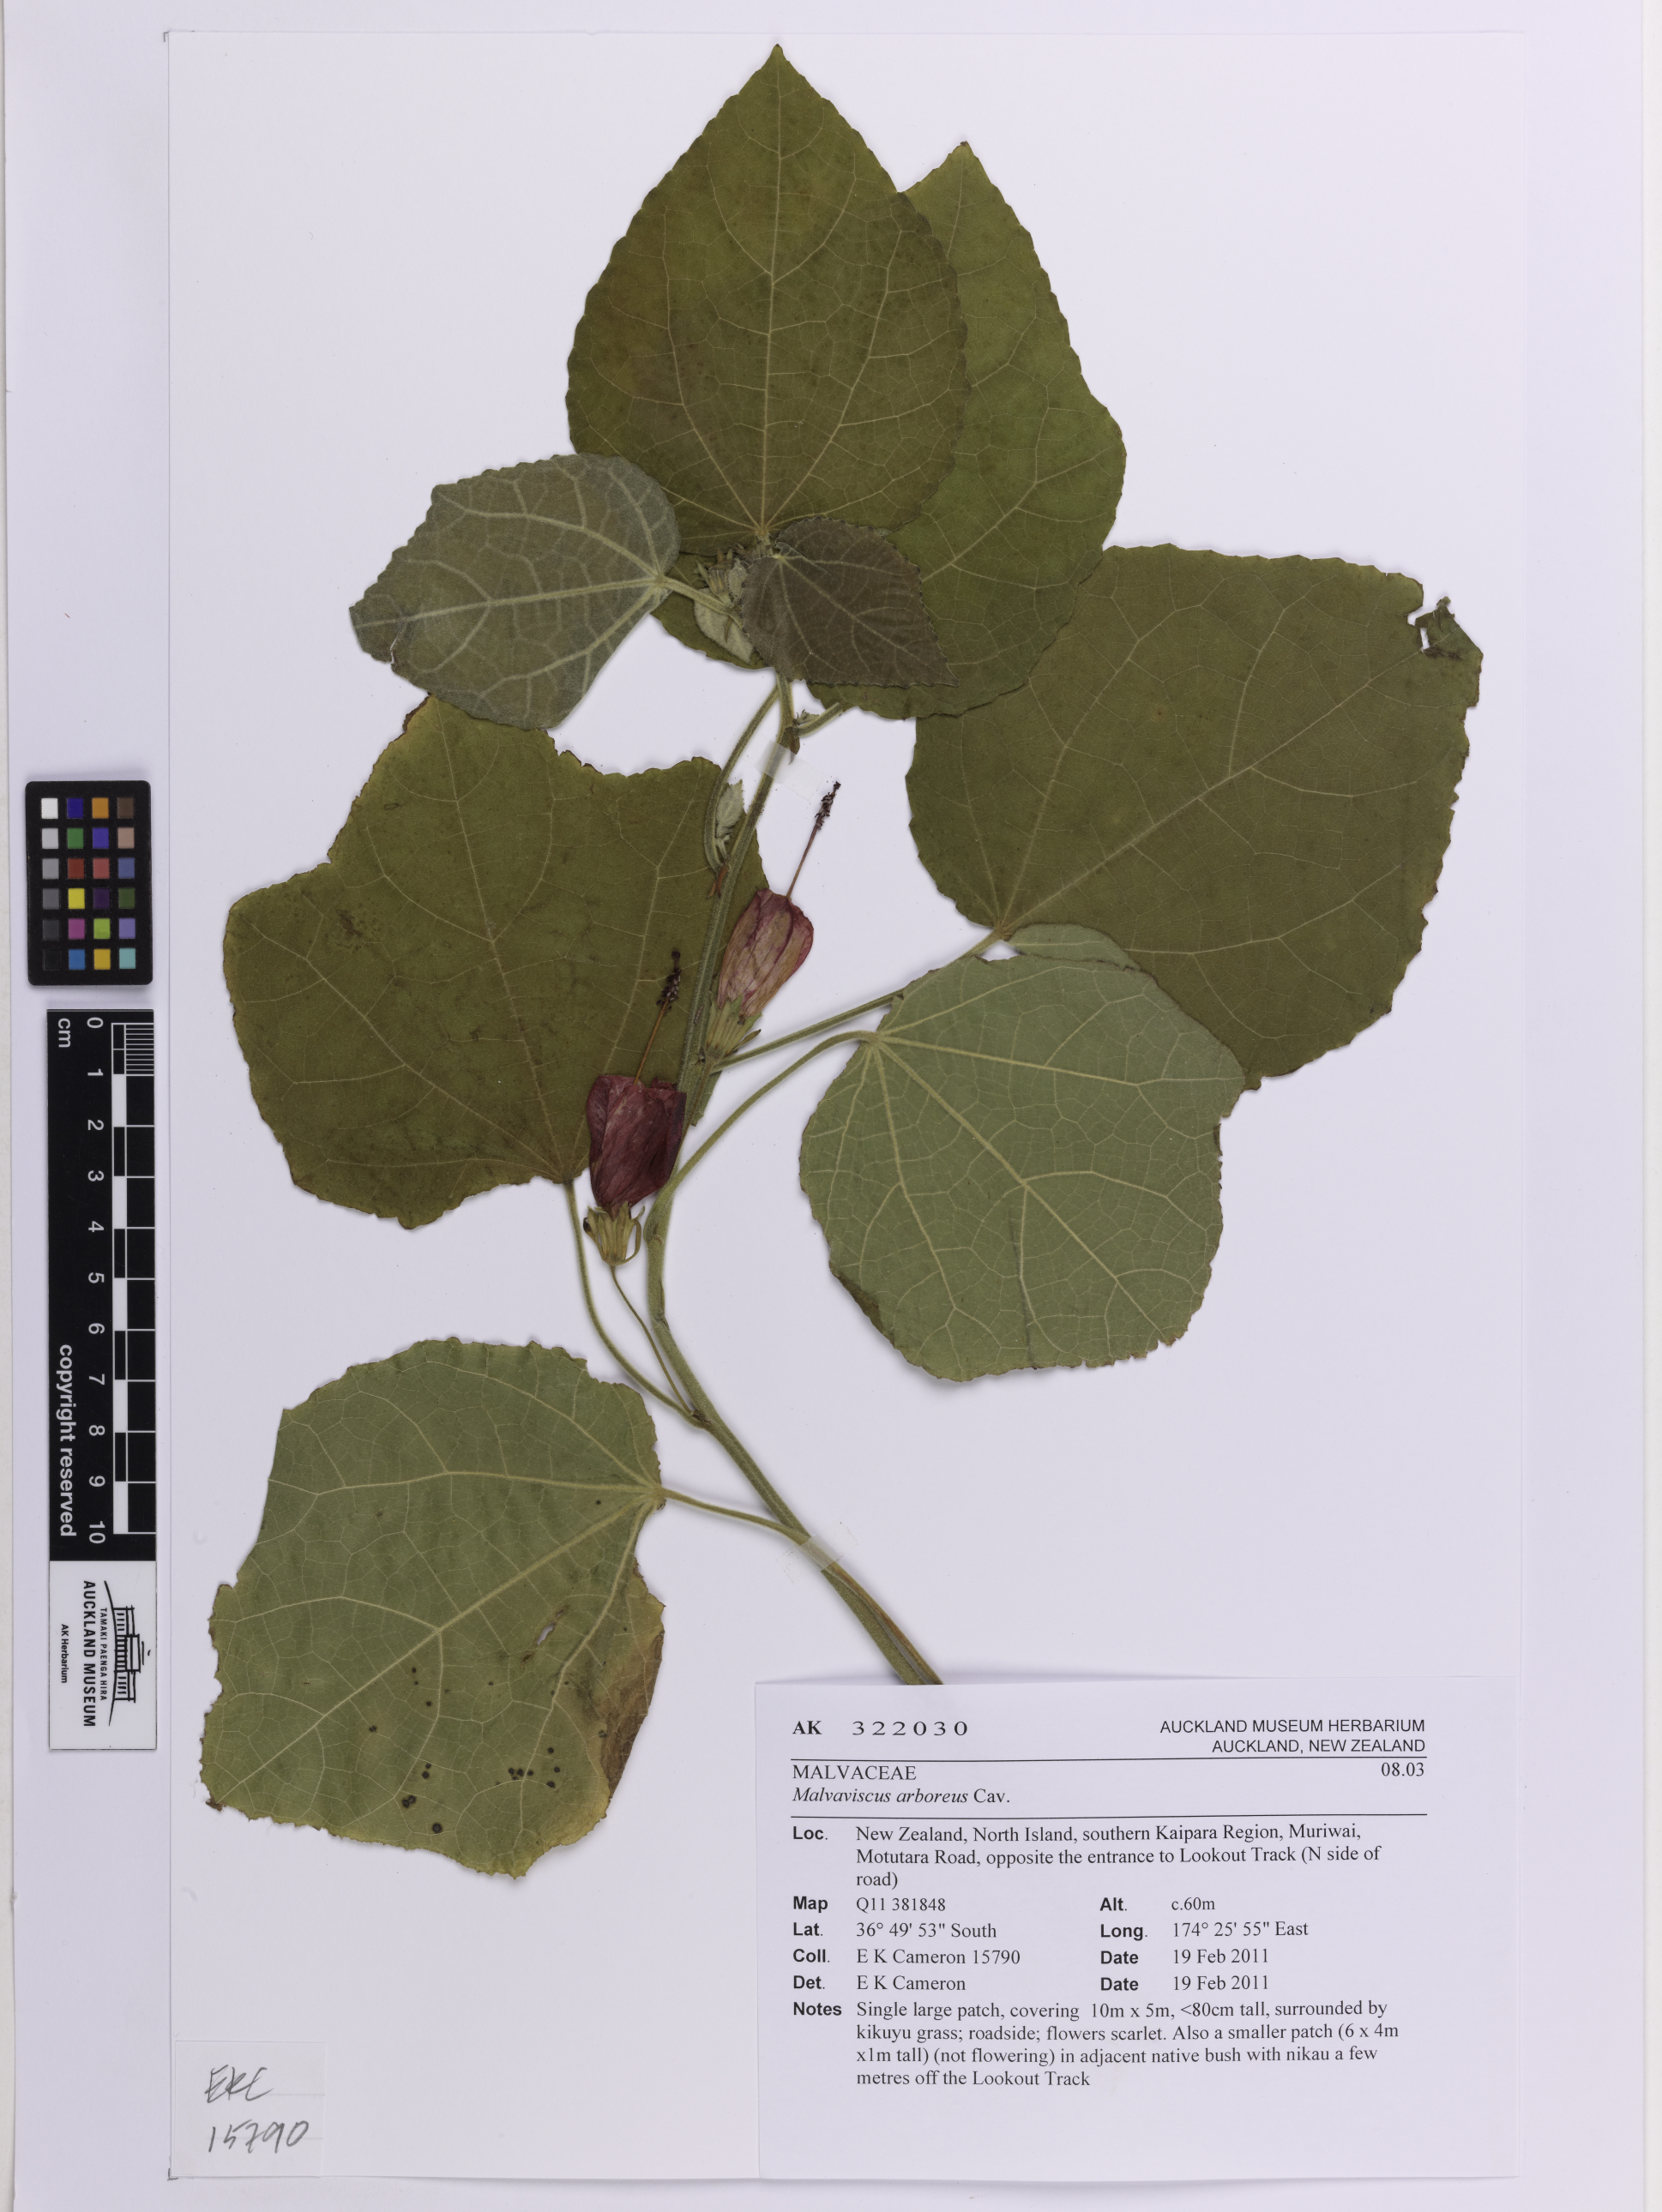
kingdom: Plantae
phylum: Tracheophyta
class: Magnoliopsida
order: Malvales
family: Malvaceae
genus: Malvaviscus
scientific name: Malvaviscus arboreus
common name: Wax mallow
